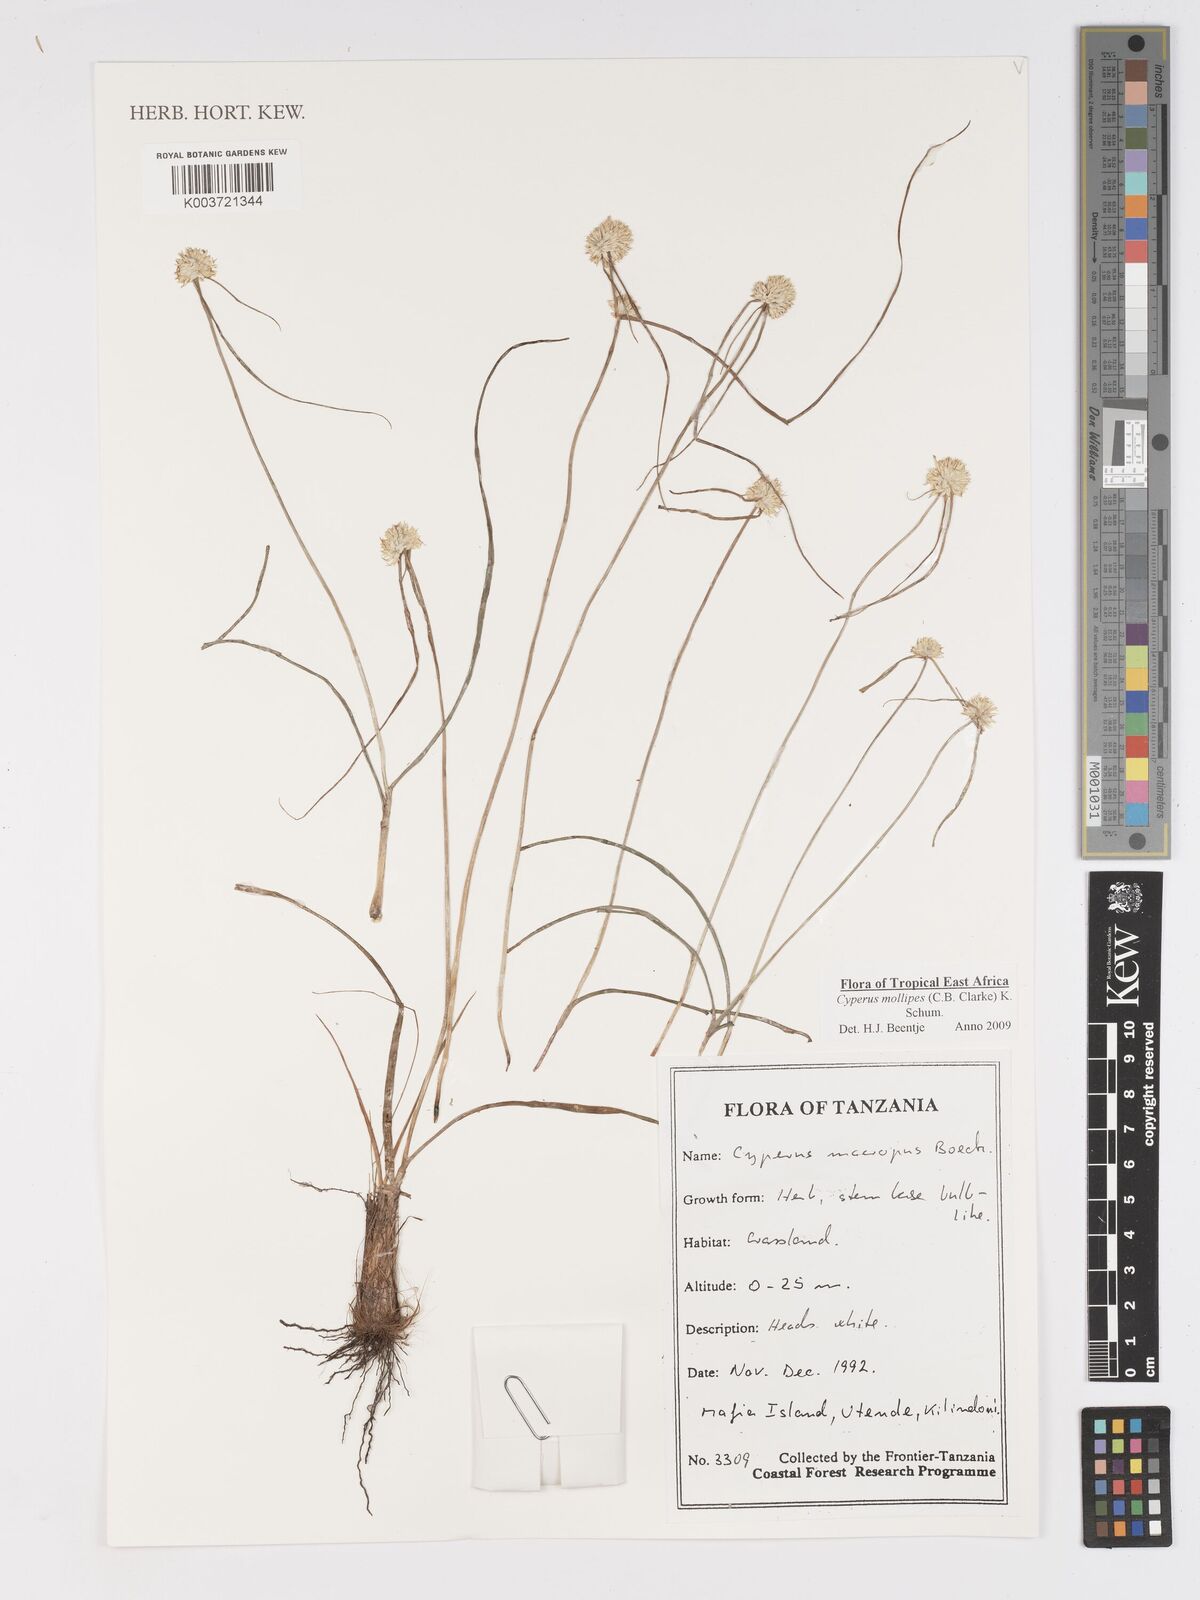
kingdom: Plantae
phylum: Tracheophyta
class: Liliopsida
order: Poales
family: Cyperaceae
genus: Cyperus
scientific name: Cyperus mollipes
